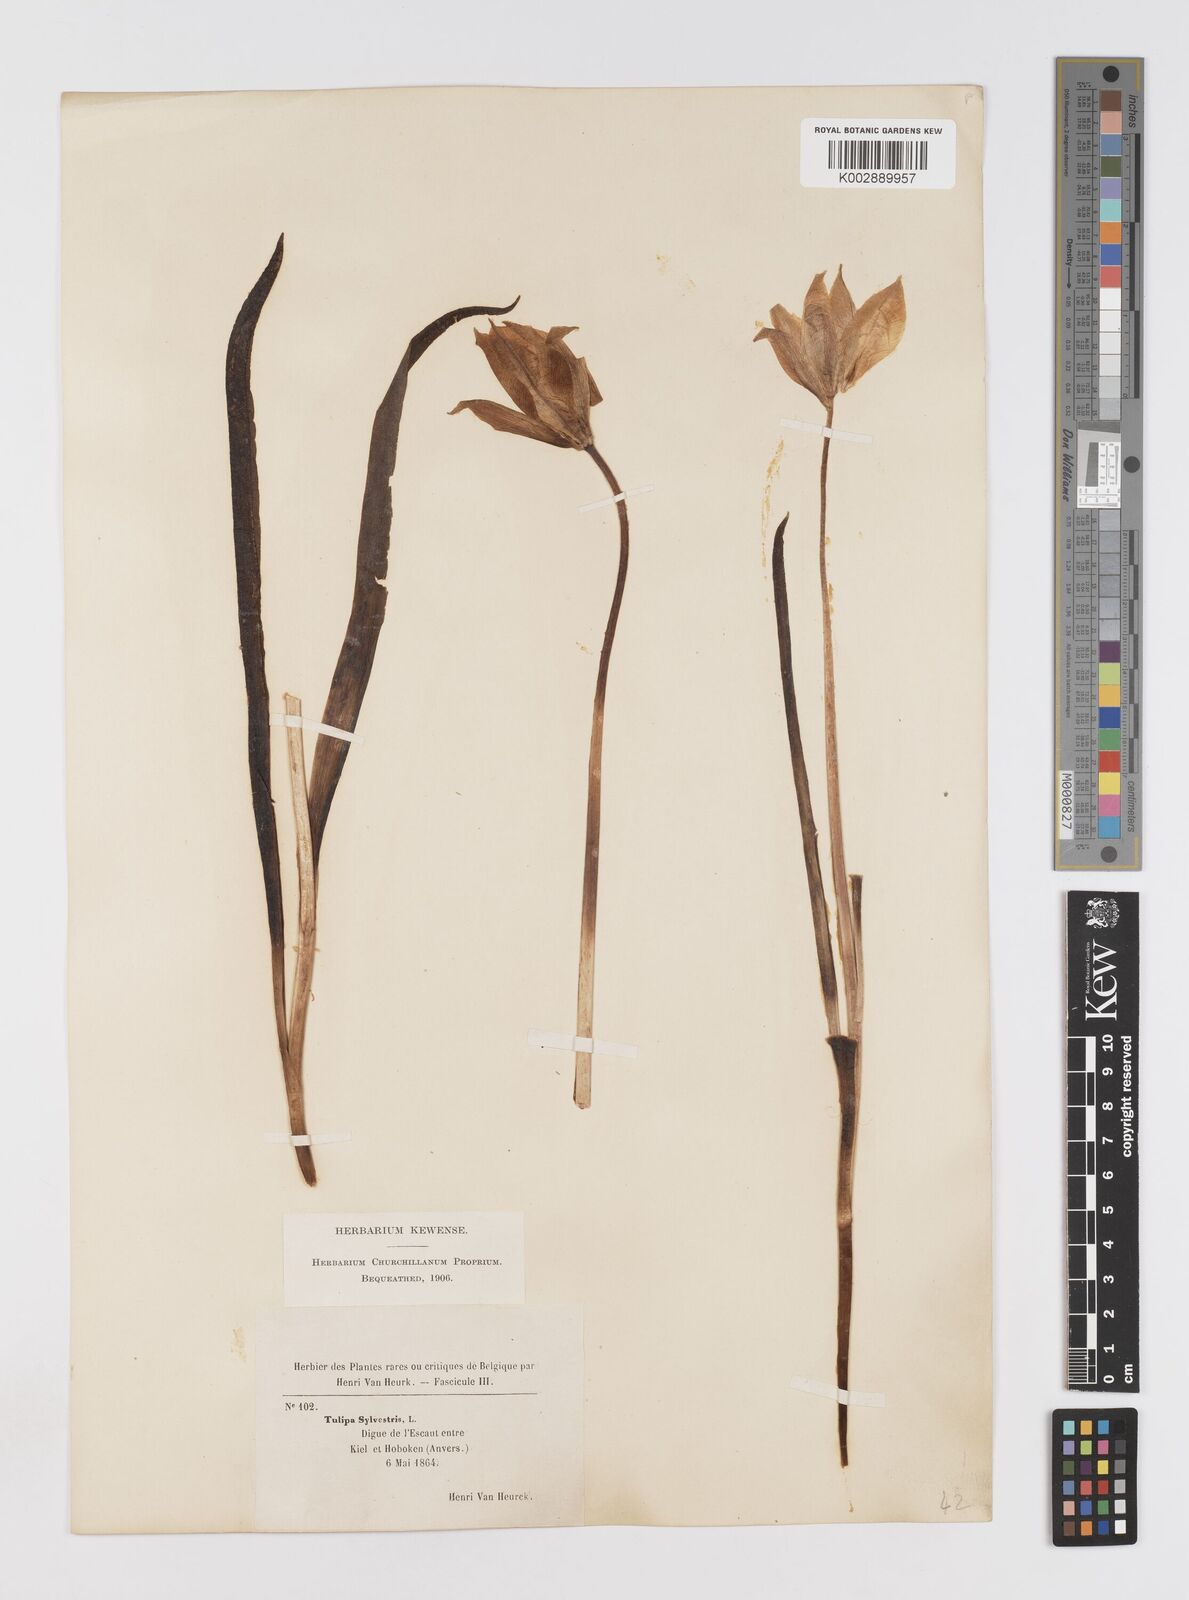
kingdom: Plantae
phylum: Tracheophyta
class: Liliopsida
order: Liliales
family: Liliaceae
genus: Tulipa
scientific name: Tulipa sylvestris
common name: Wild tulip
